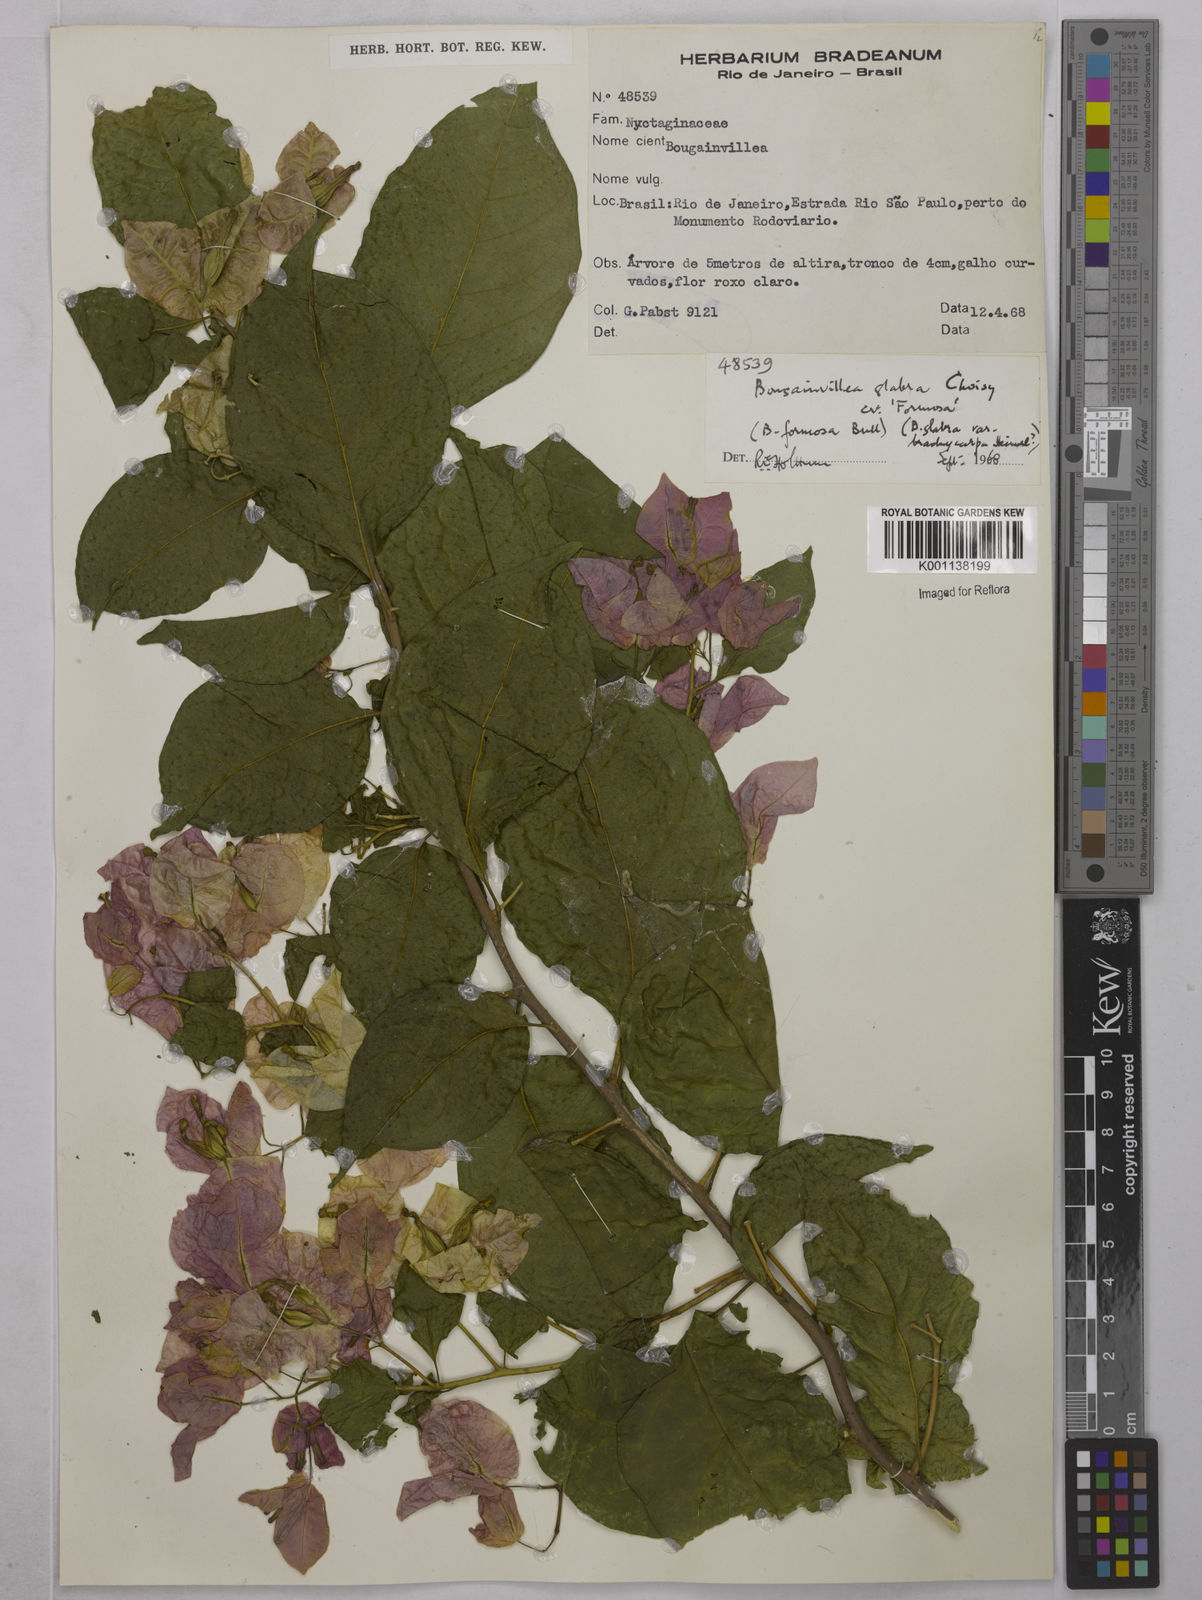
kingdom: Plantae
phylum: Tracheophyta
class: Magnoliopsida
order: Caryophyllales
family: Nyctaginaceae
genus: Bougainvillea
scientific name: Bougainvillea glabra
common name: Paperflower
